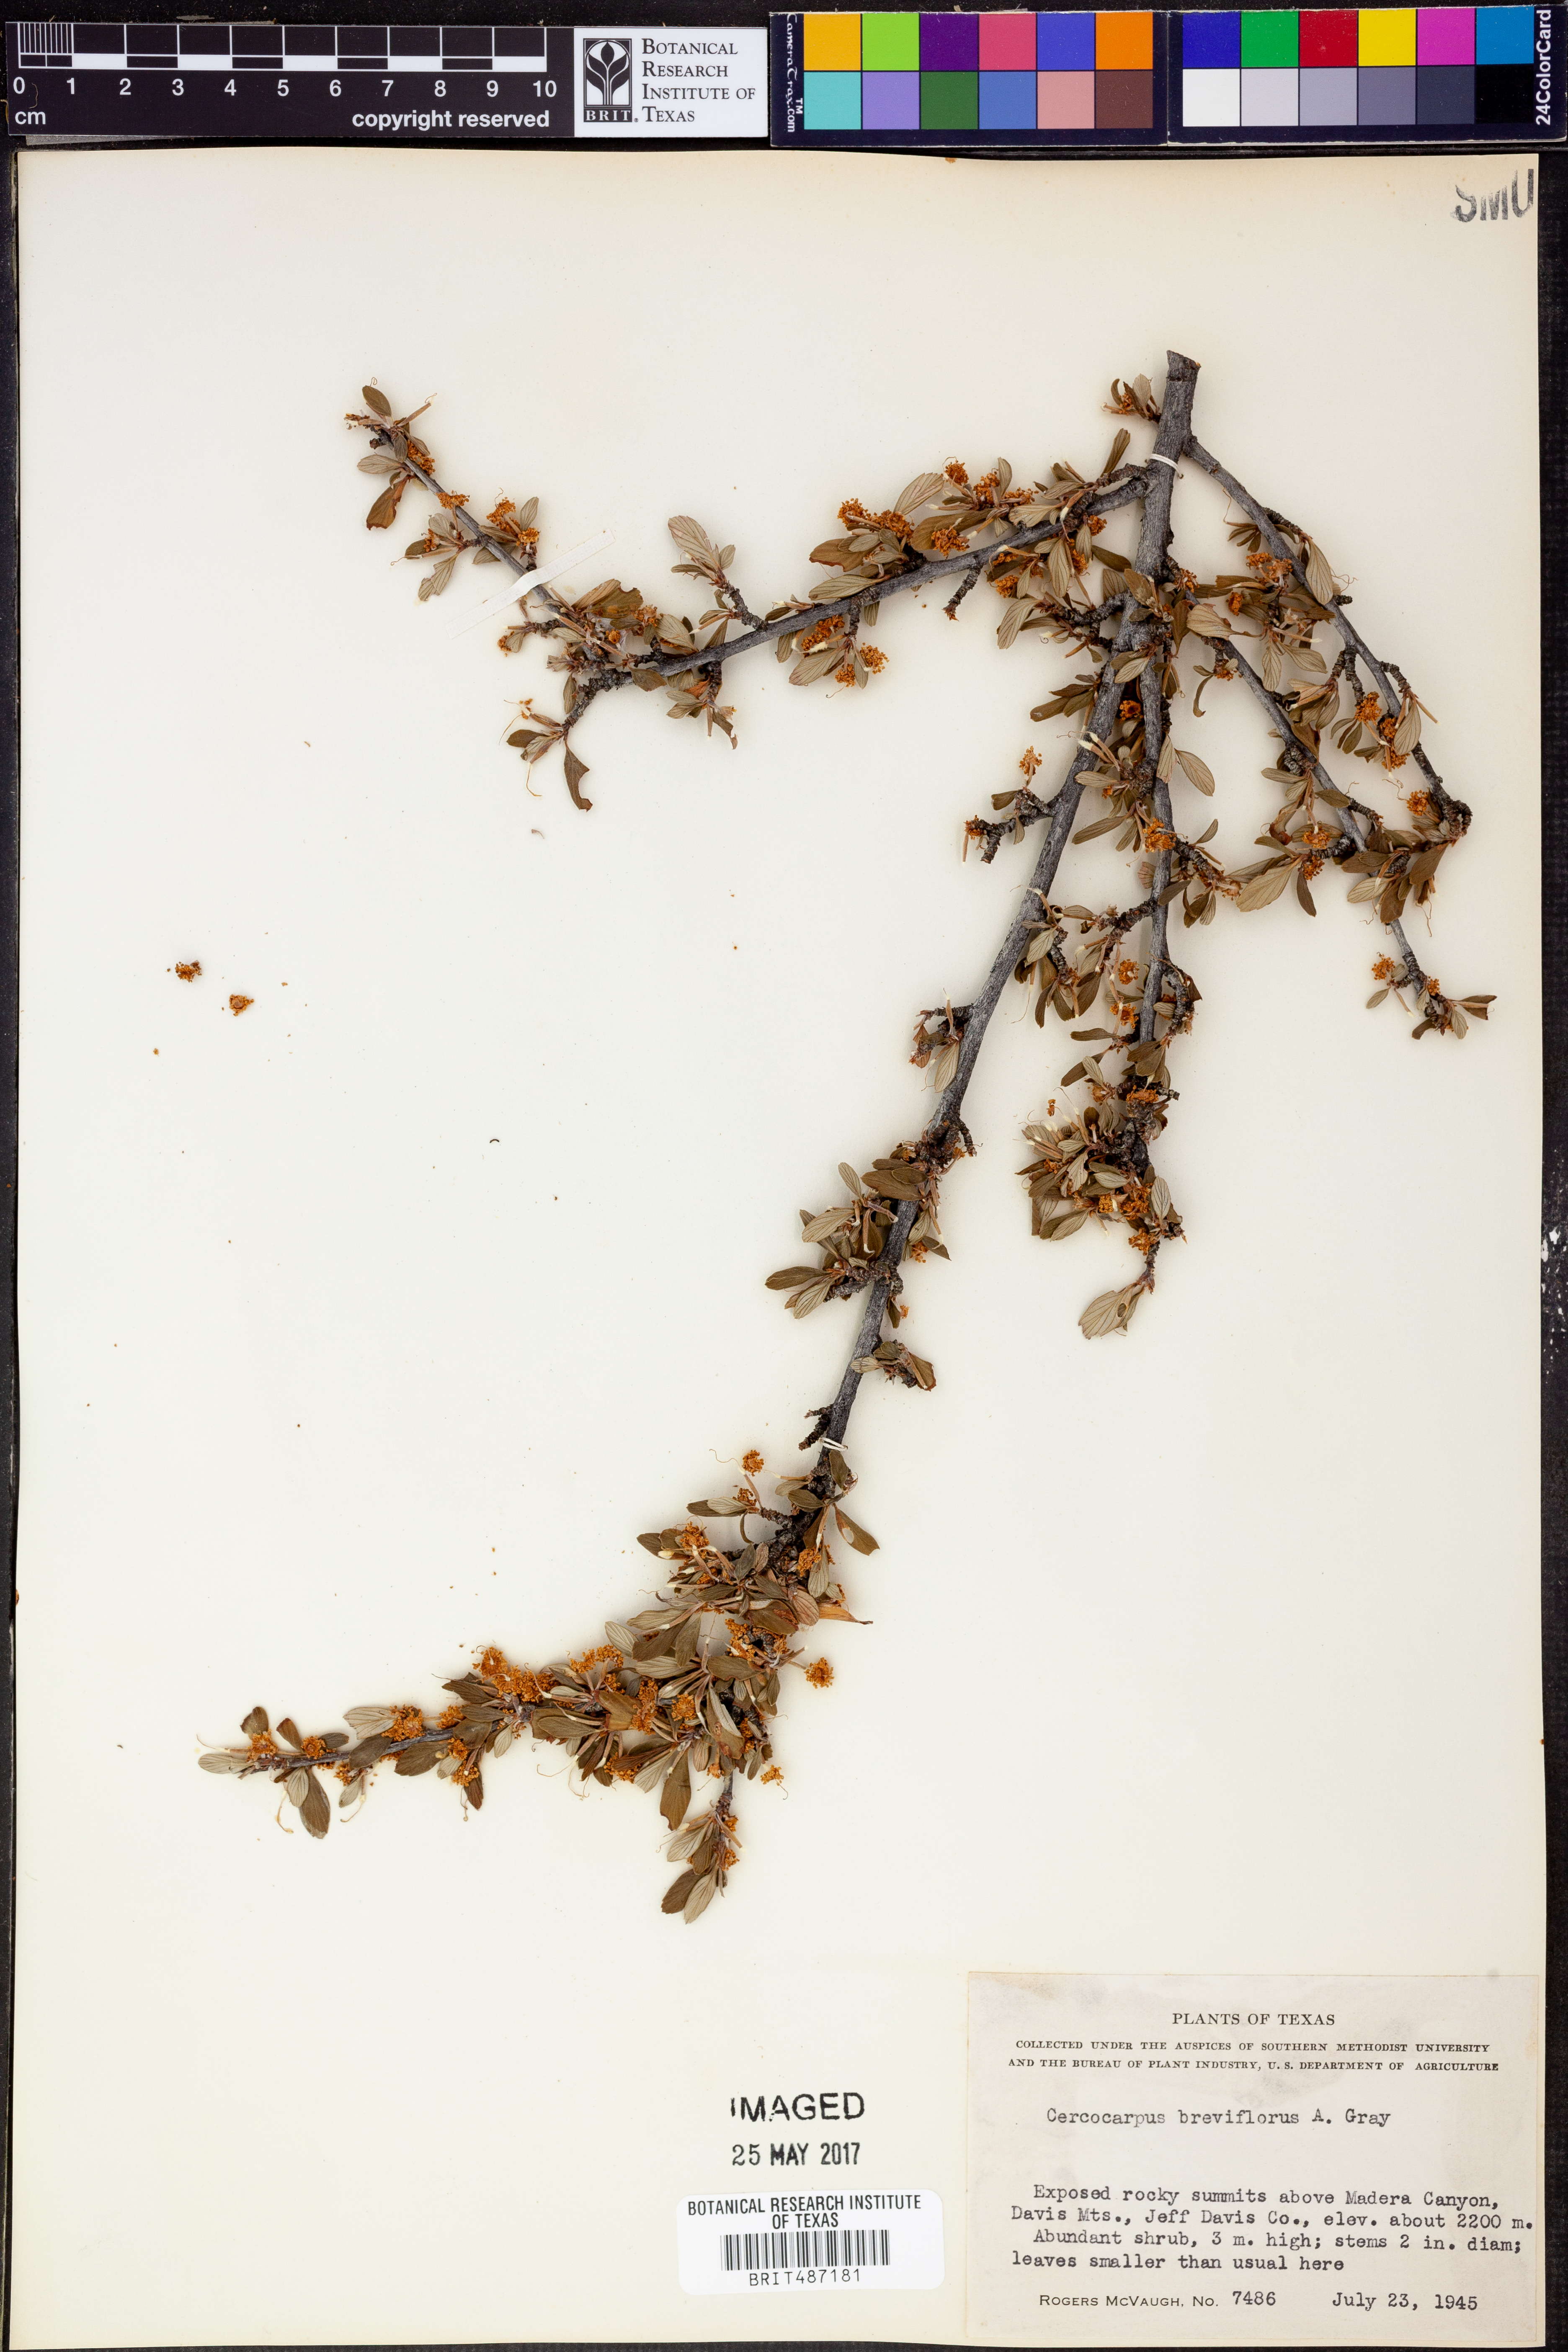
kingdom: Plantae
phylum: Tracheophyta
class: Magnoliopsida
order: Rosales
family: Rosaceae
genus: Cercocarpus
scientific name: Cercocarpus breviflorus
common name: Wright's mountain-mahogany
